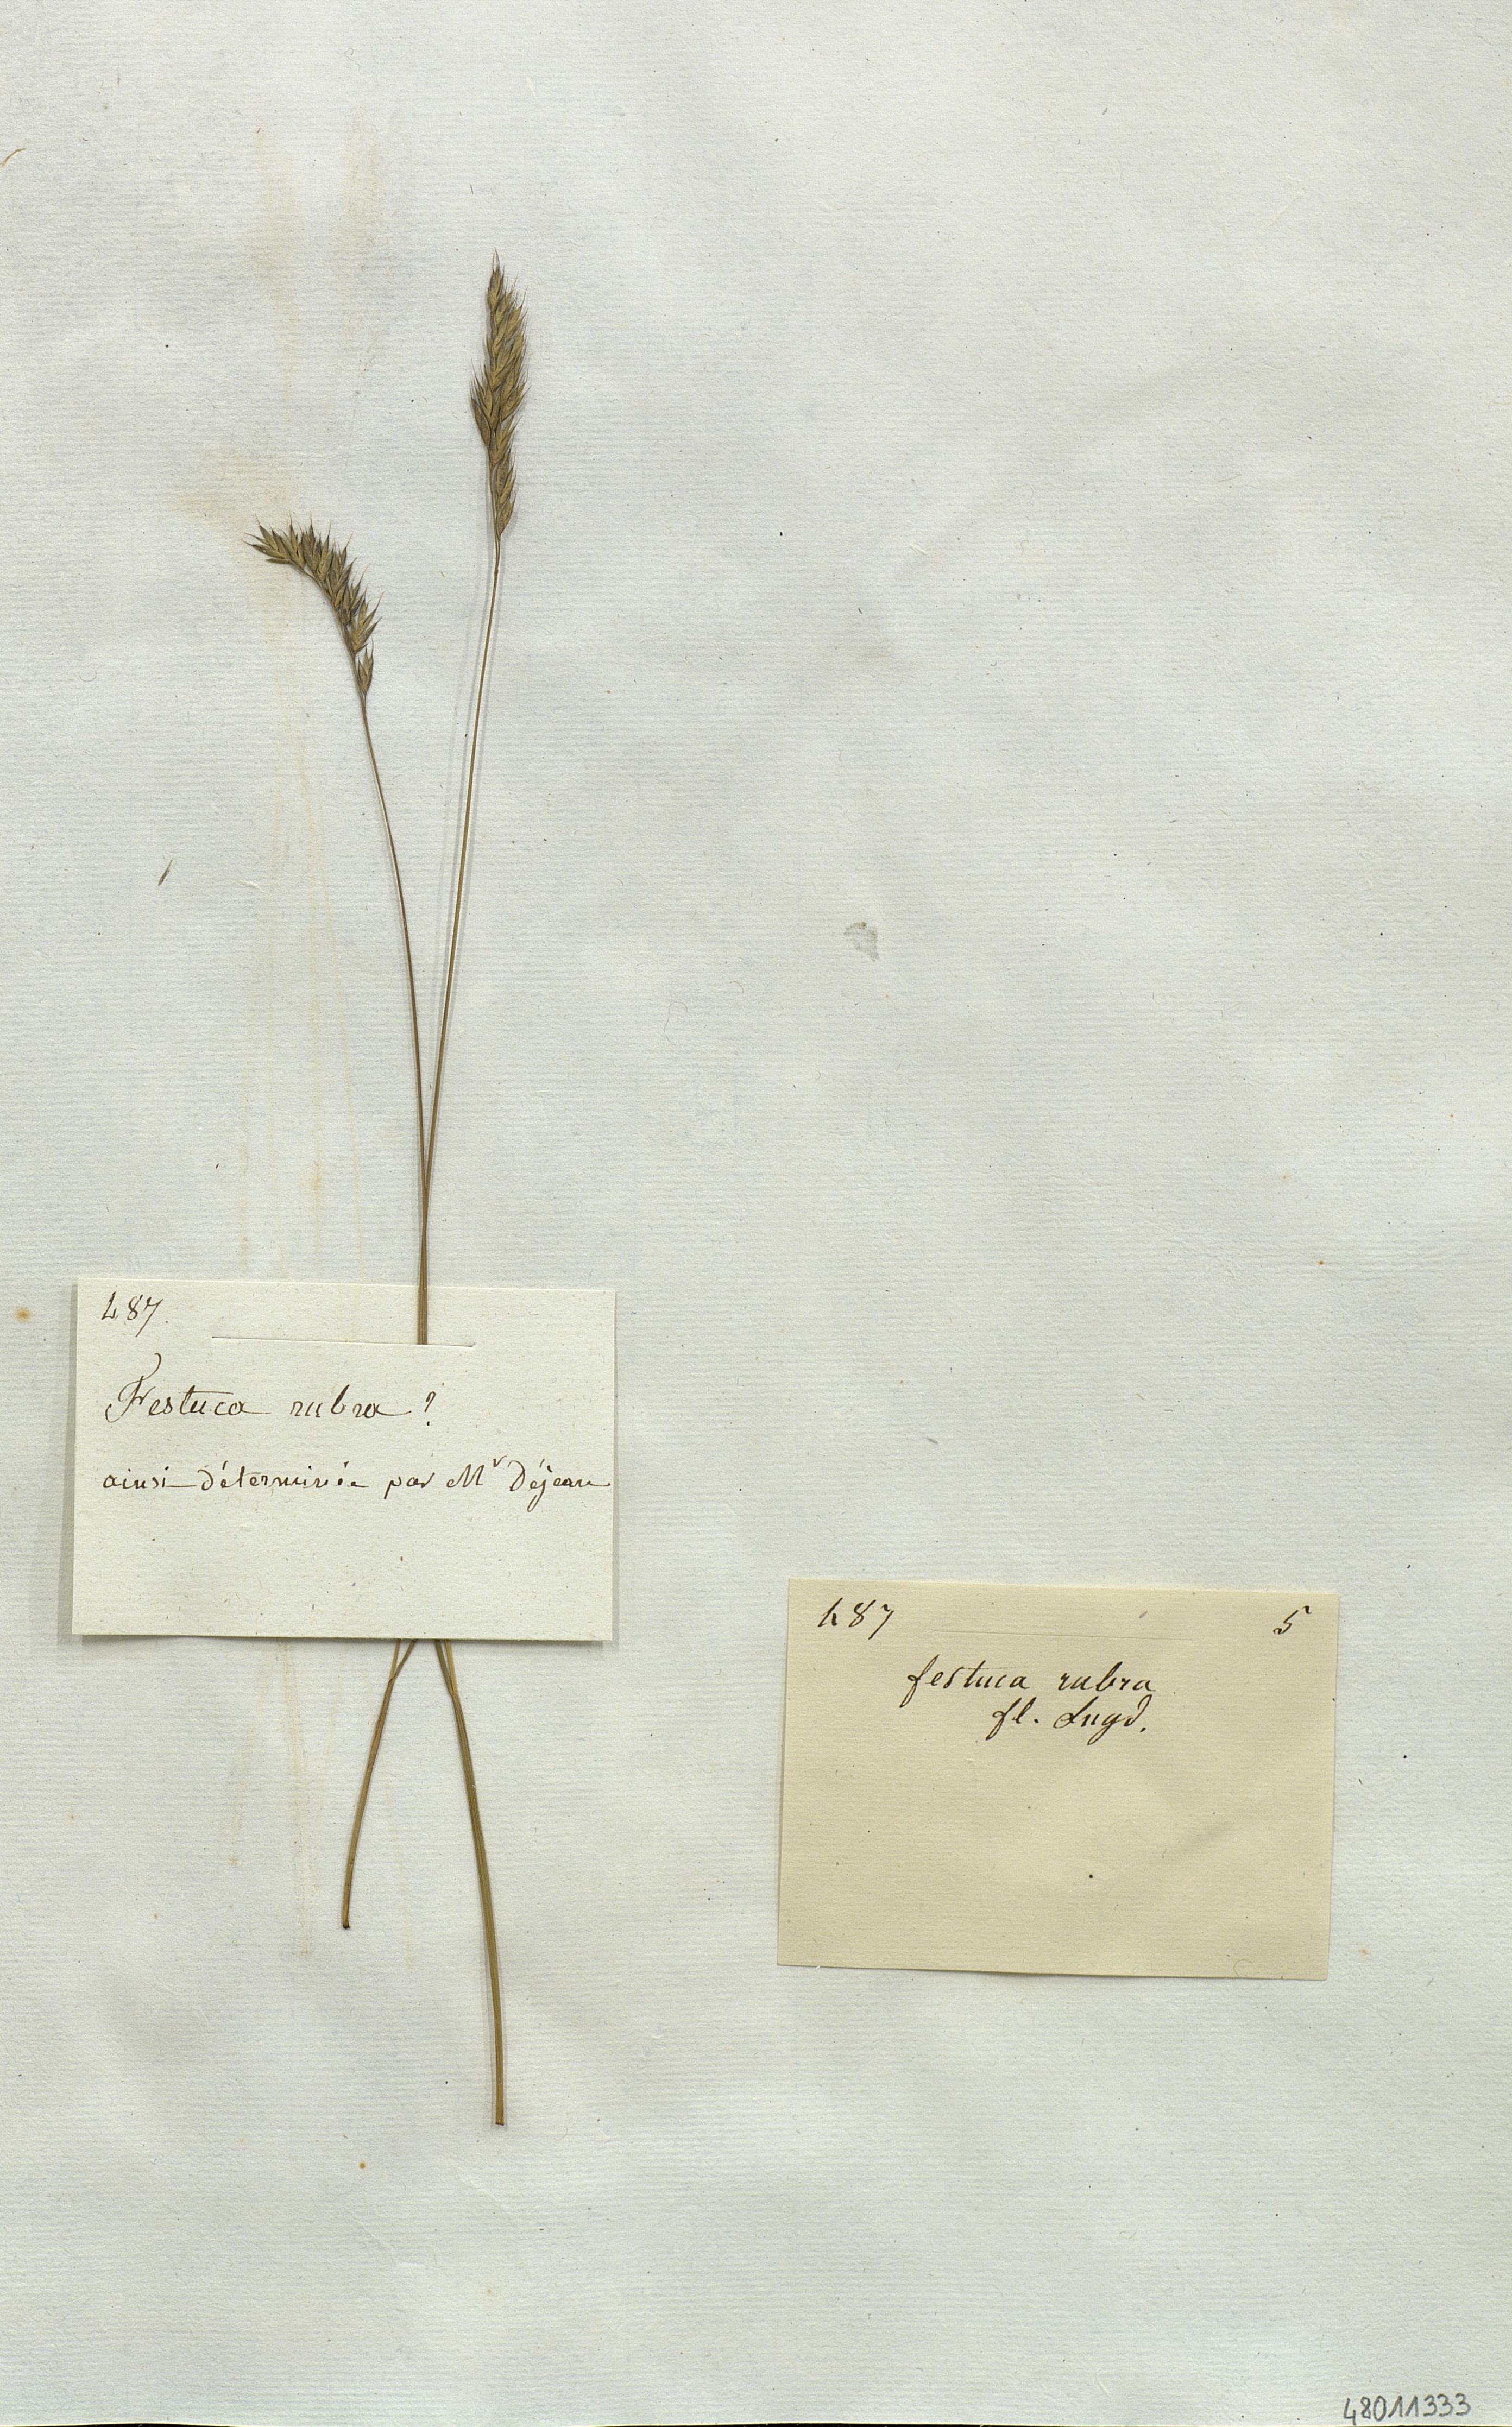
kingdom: Plantae
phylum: Tracheophyta
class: Liliopsida
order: Poales
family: Poaceae
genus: Festuca
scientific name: Festuca rubra
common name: Red fescue
